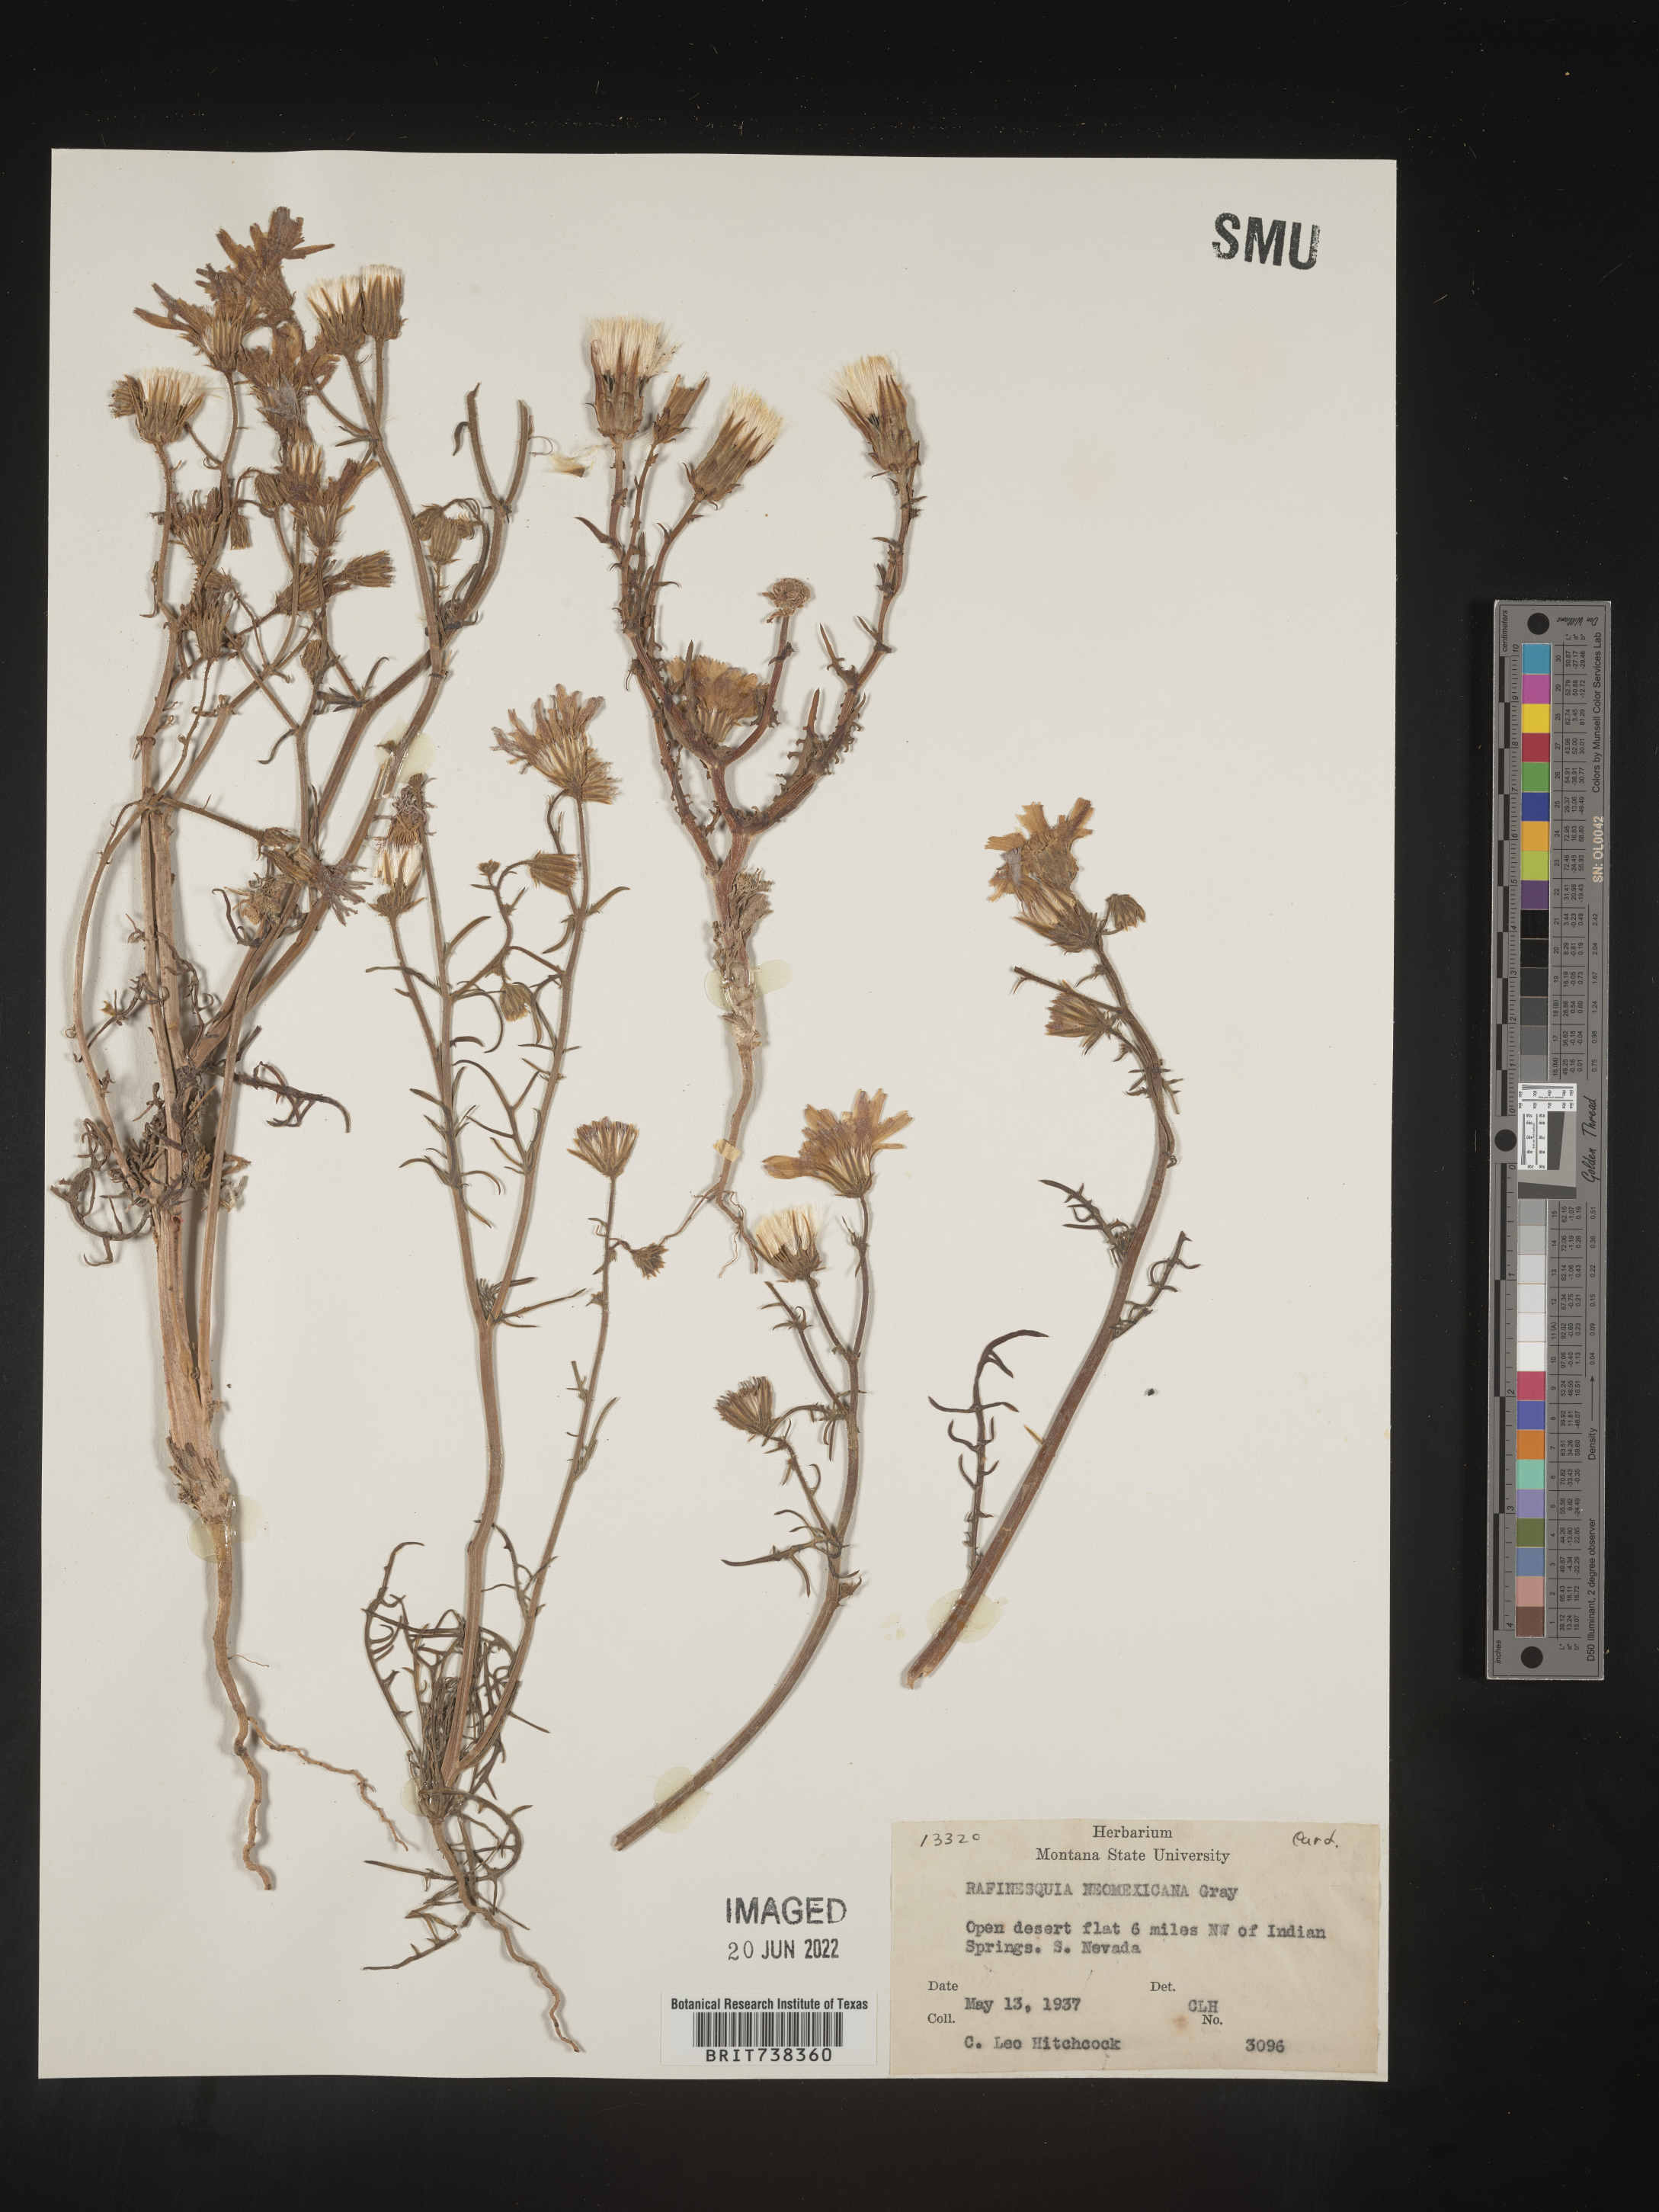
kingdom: Plantae
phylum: Tracheophyta
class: Magnoliopsida
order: Asterales
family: Asteraceae
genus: Rafinesquia
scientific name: Rafinesquia
